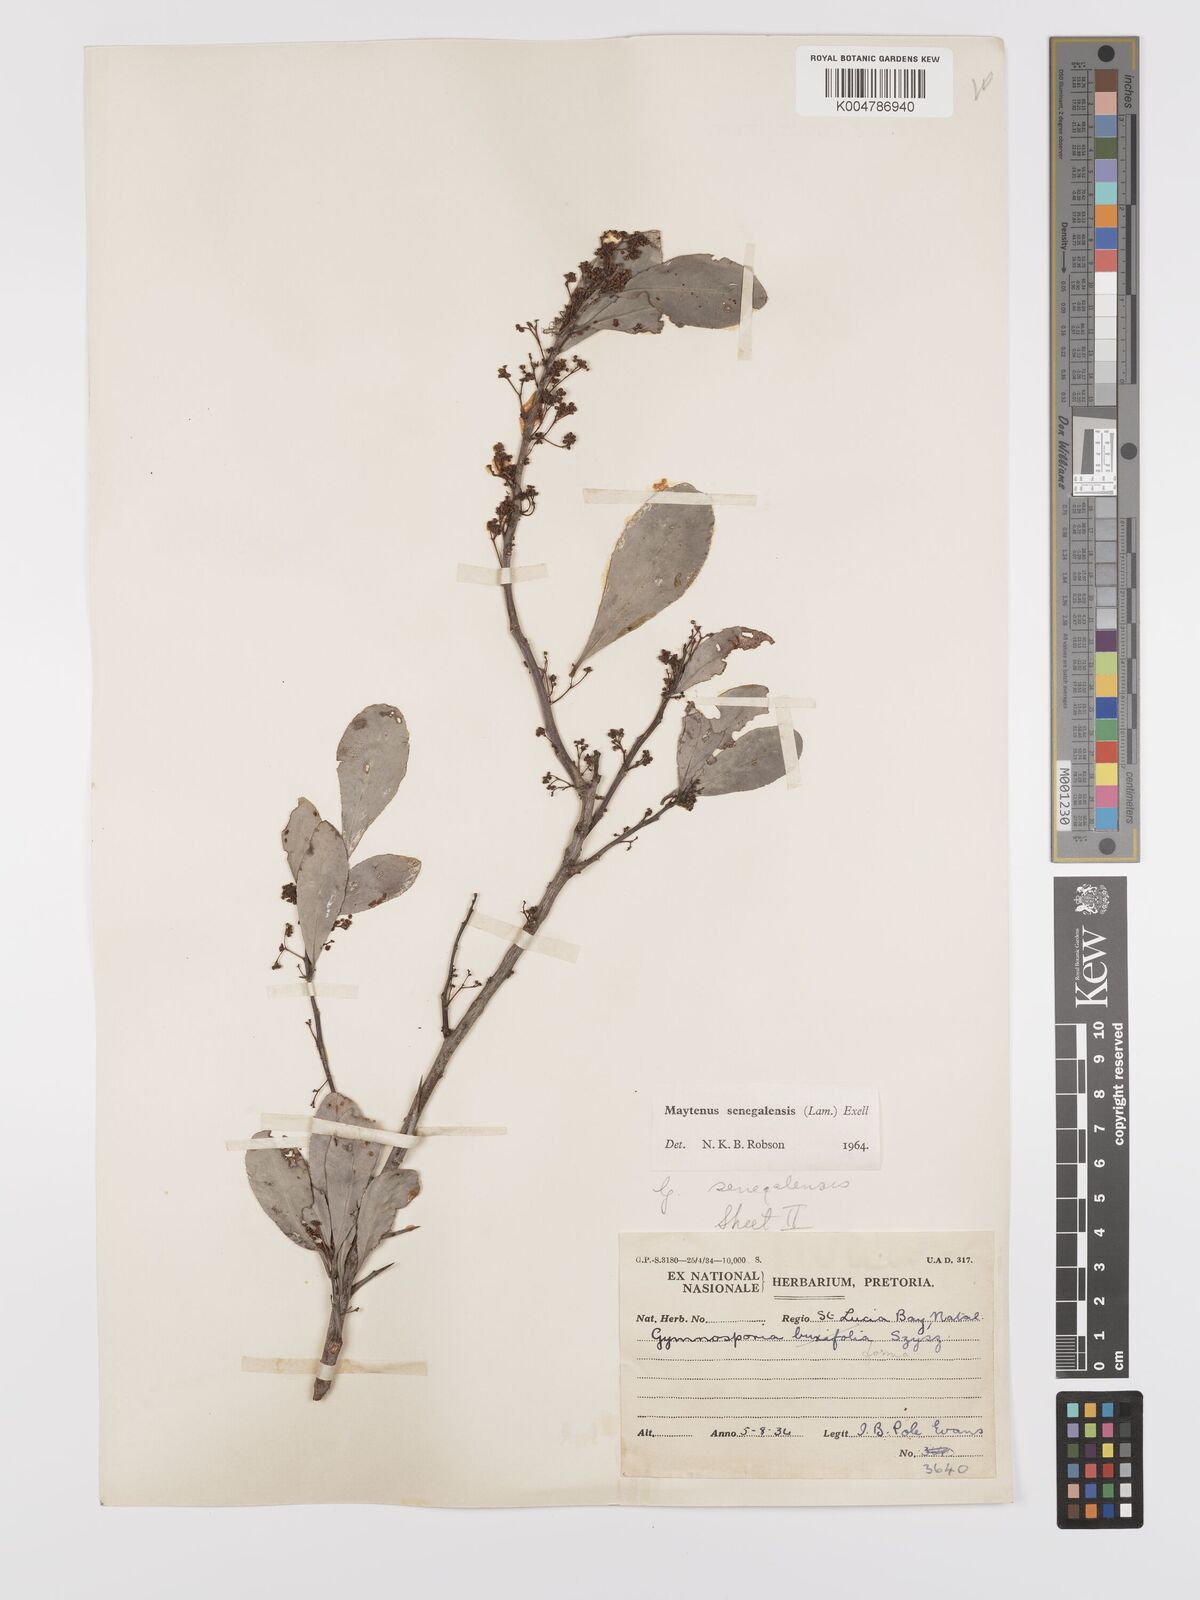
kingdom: Plantae
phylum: Tracheophyta
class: Magnoliopsida
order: Celastrales
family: Celastraceae
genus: Gymnosporia
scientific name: Gymnosporia senegalensis
